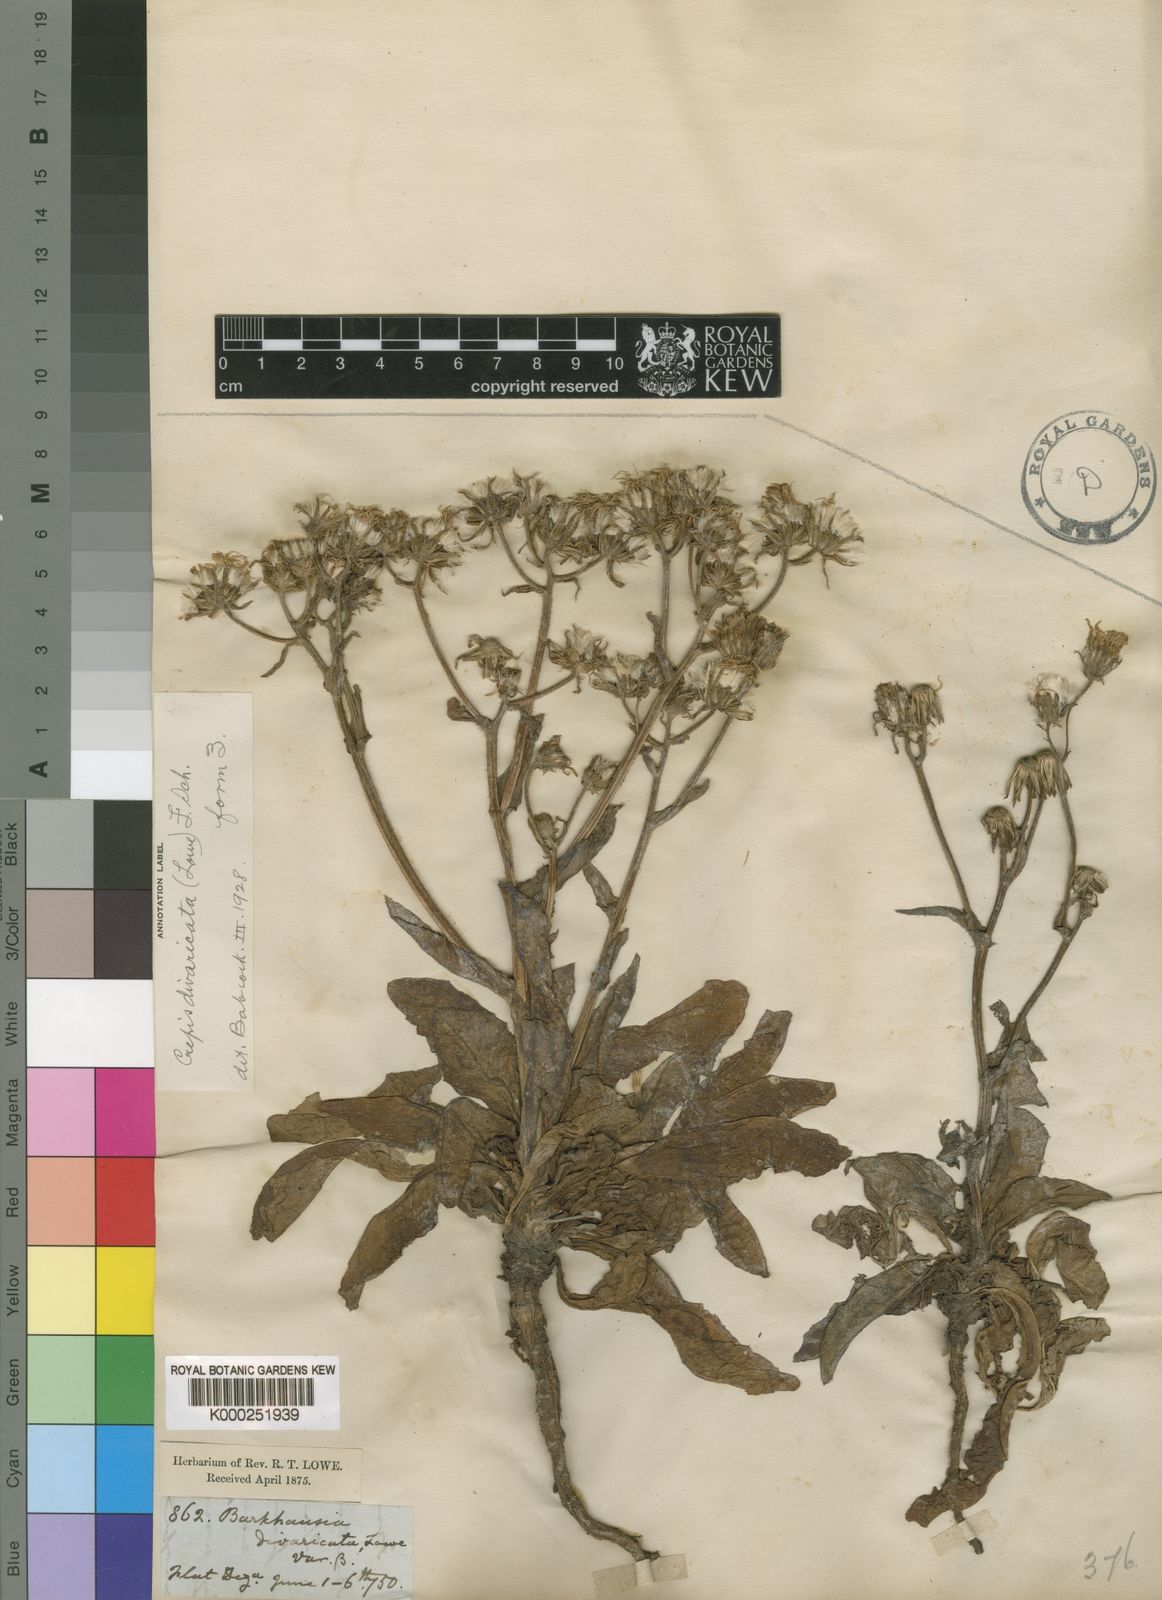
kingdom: Plantae
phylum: Tracheophyta
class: Magnoliopsida
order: Asterales
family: Asteraceae
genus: Crepis
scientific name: Crepis divaricata
